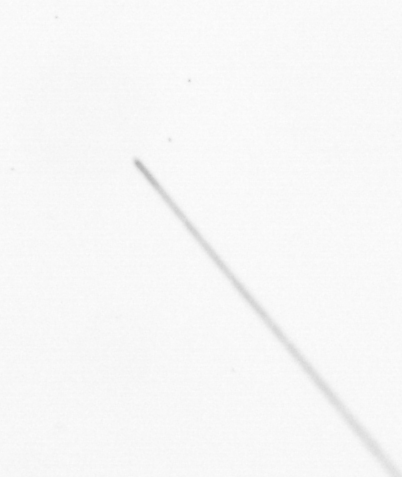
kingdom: Chromista
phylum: Ochrophyta
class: Bacillariophyceae
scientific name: Bacillariophyceae
